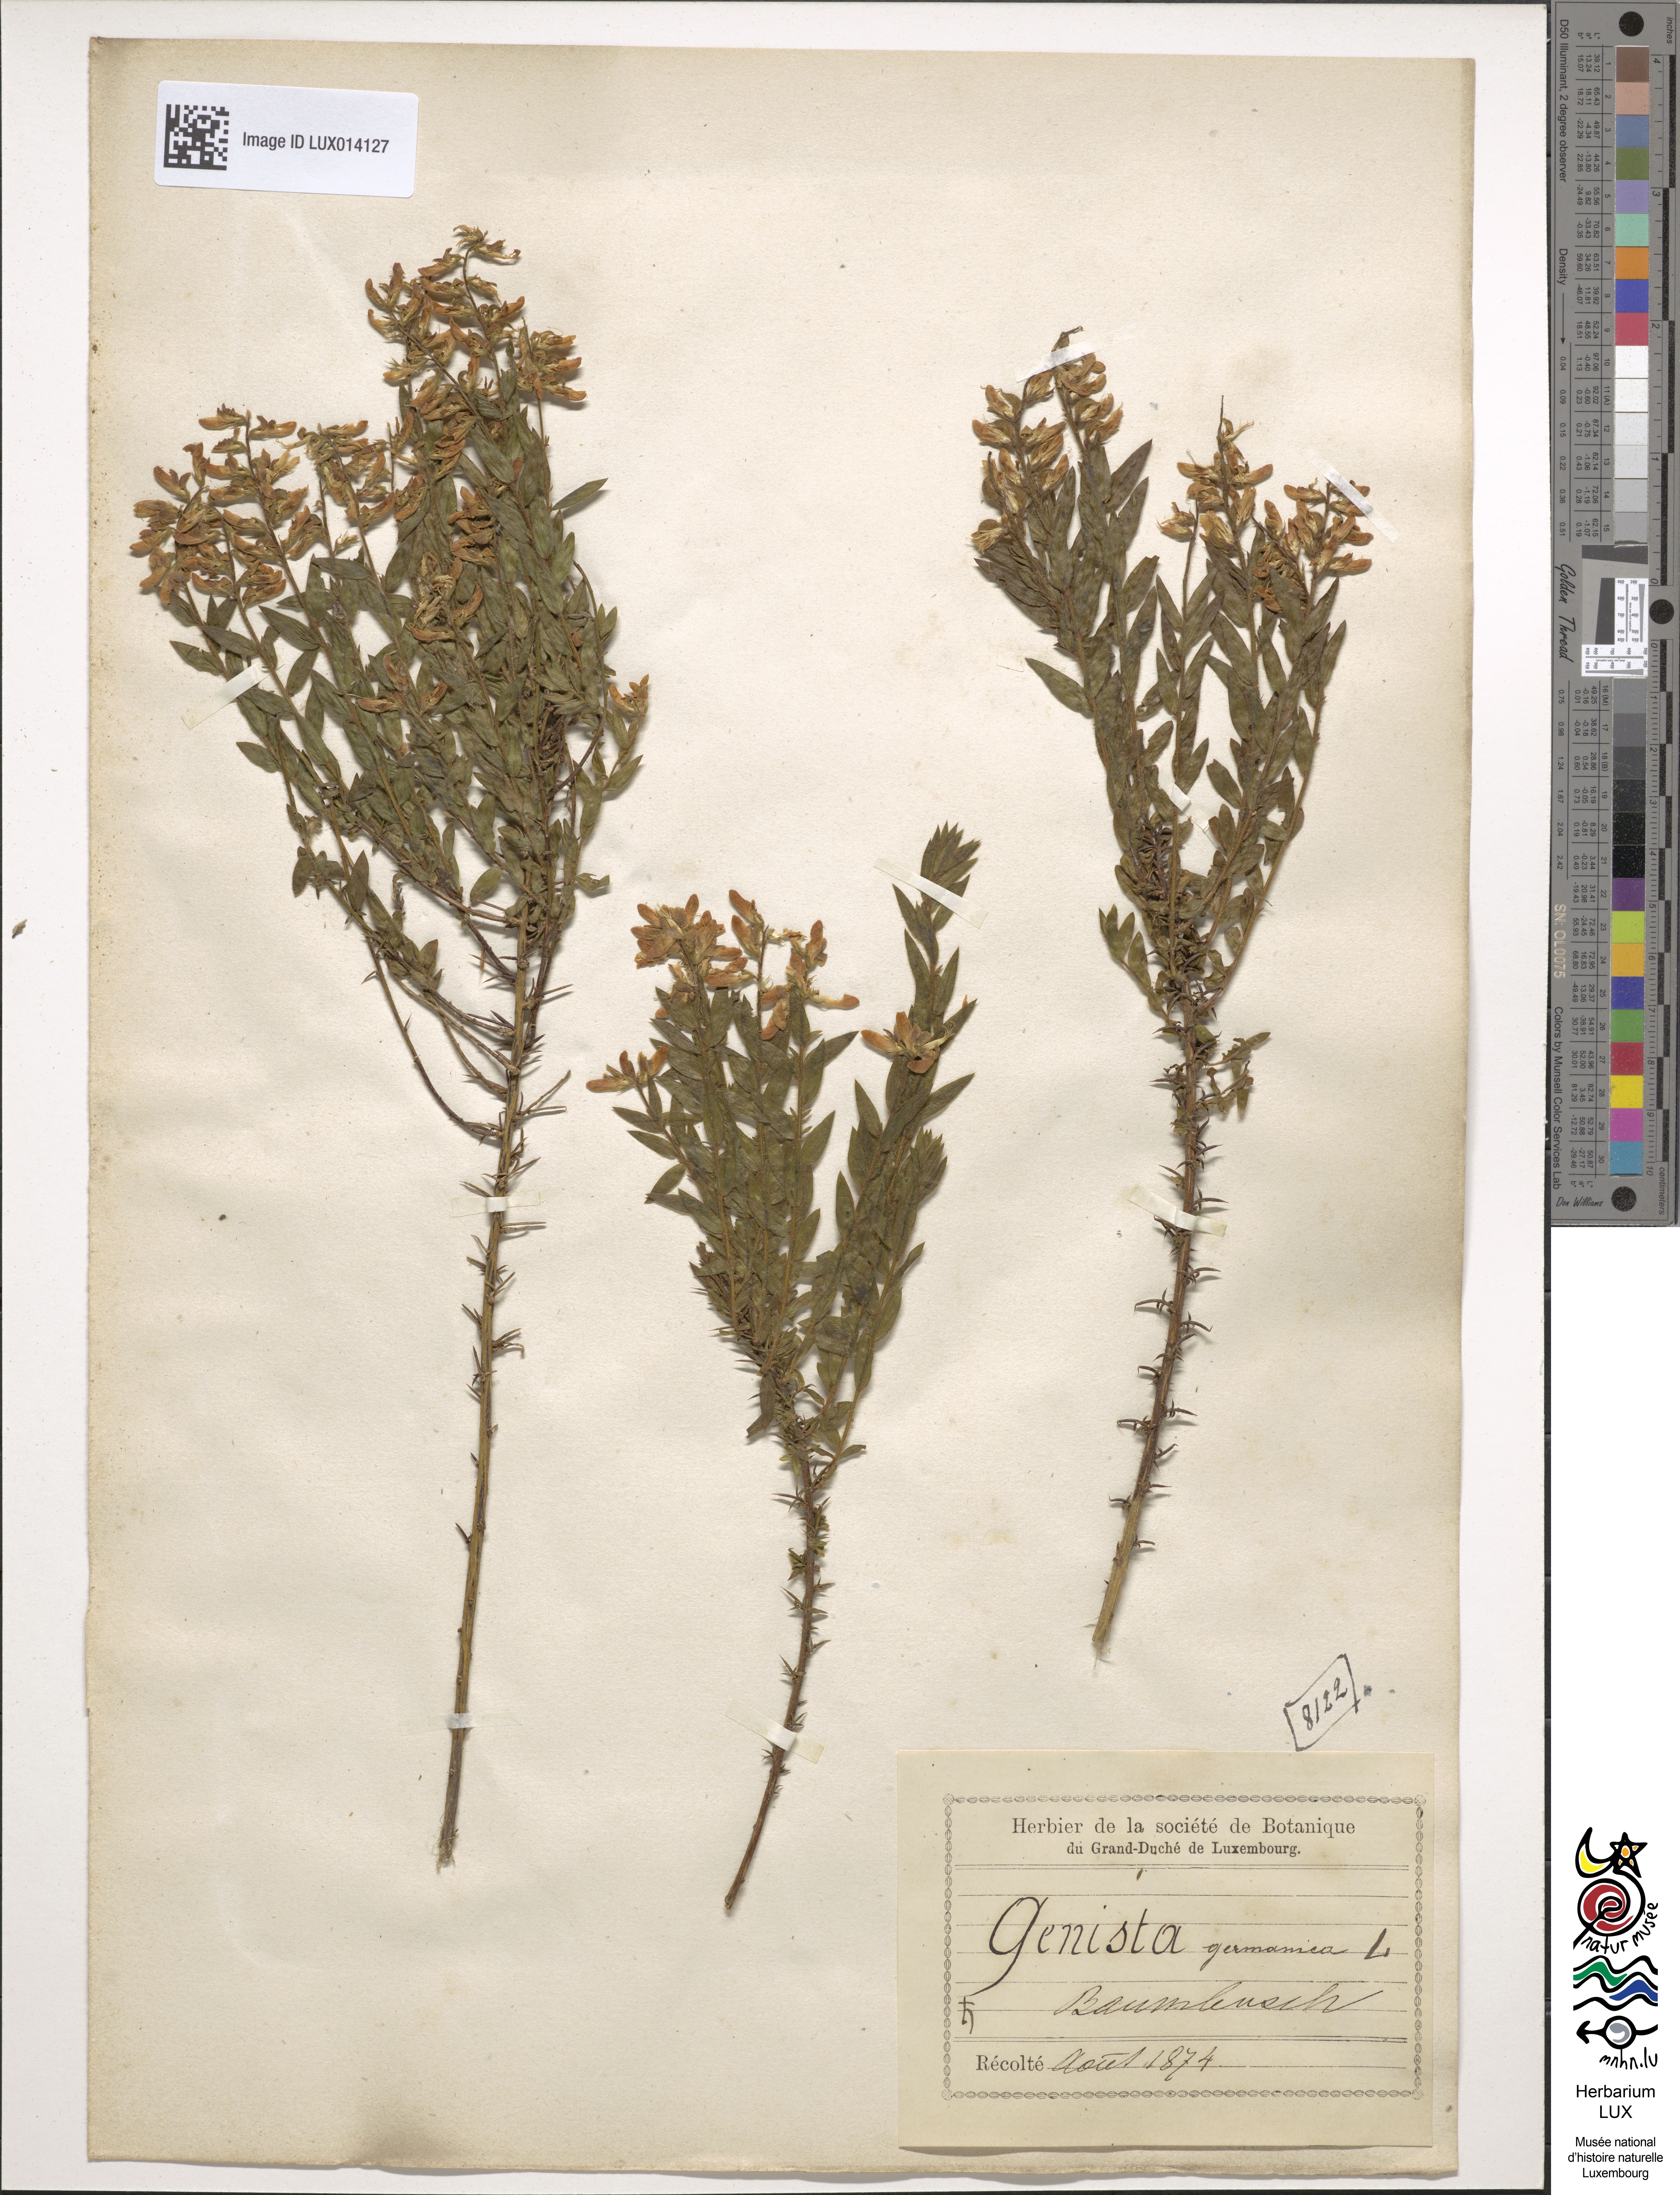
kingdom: Plantae
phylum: Tracheophyta
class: Magnoliopsida
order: Fabales
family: Fabaceae
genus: Genista
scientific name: Genista germanica
